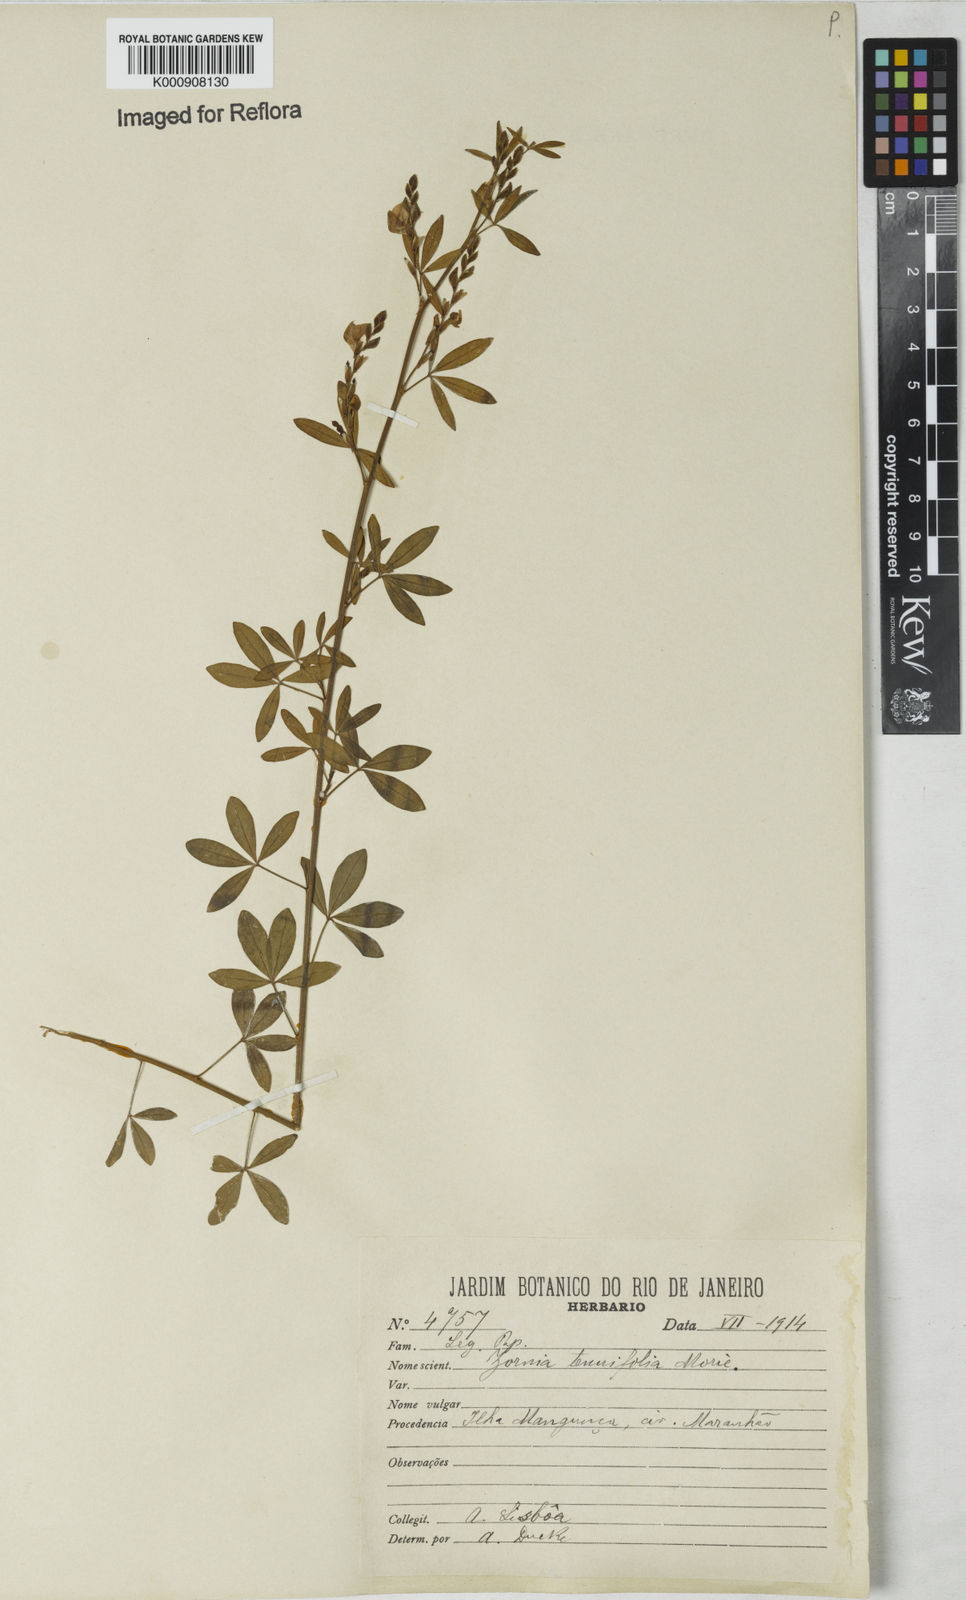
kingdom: Plantae
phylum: Tracheophyta
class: Magnoliopsida
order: Fabales
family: Fabaceae
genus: Zornia
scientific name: Zornia guanipensis
